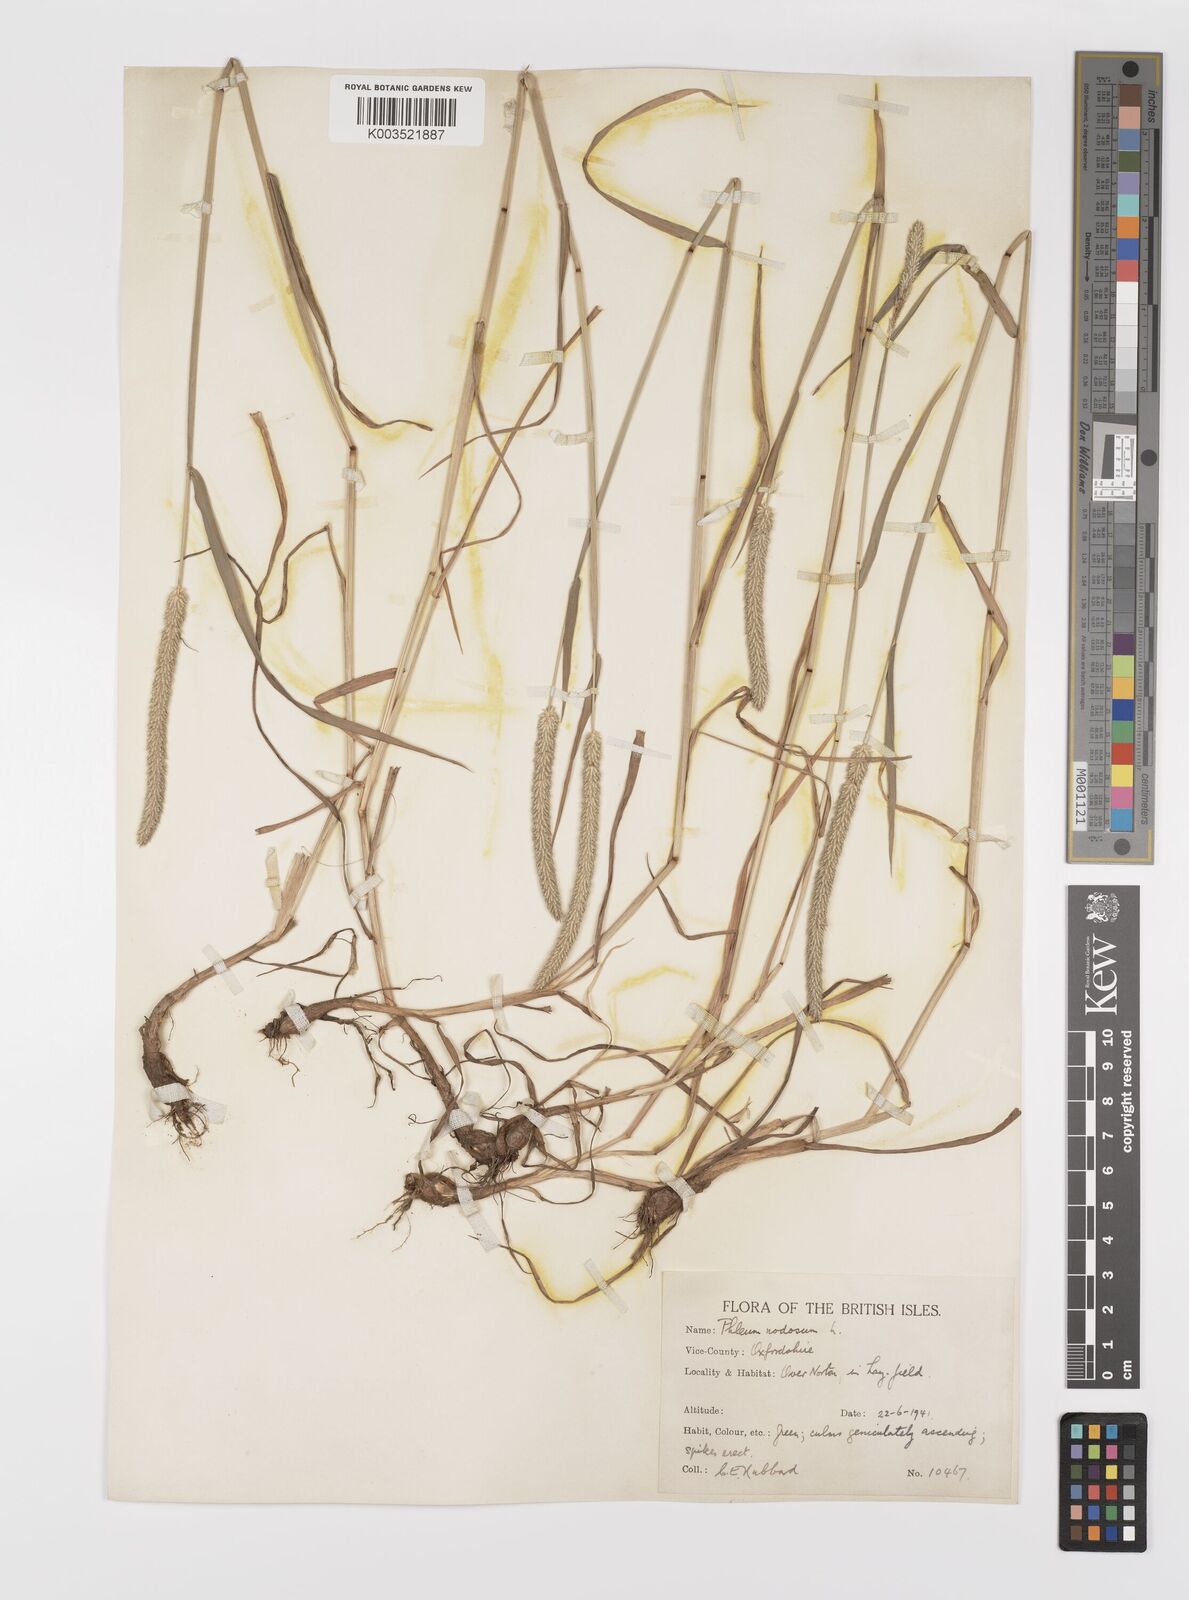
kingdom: Plantae
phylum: Tracheophyta
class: Liliopsida
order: Poales
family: Poaceae
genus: Phleum
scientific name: Phleum bertolonii
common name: Smaller cat's-tail
